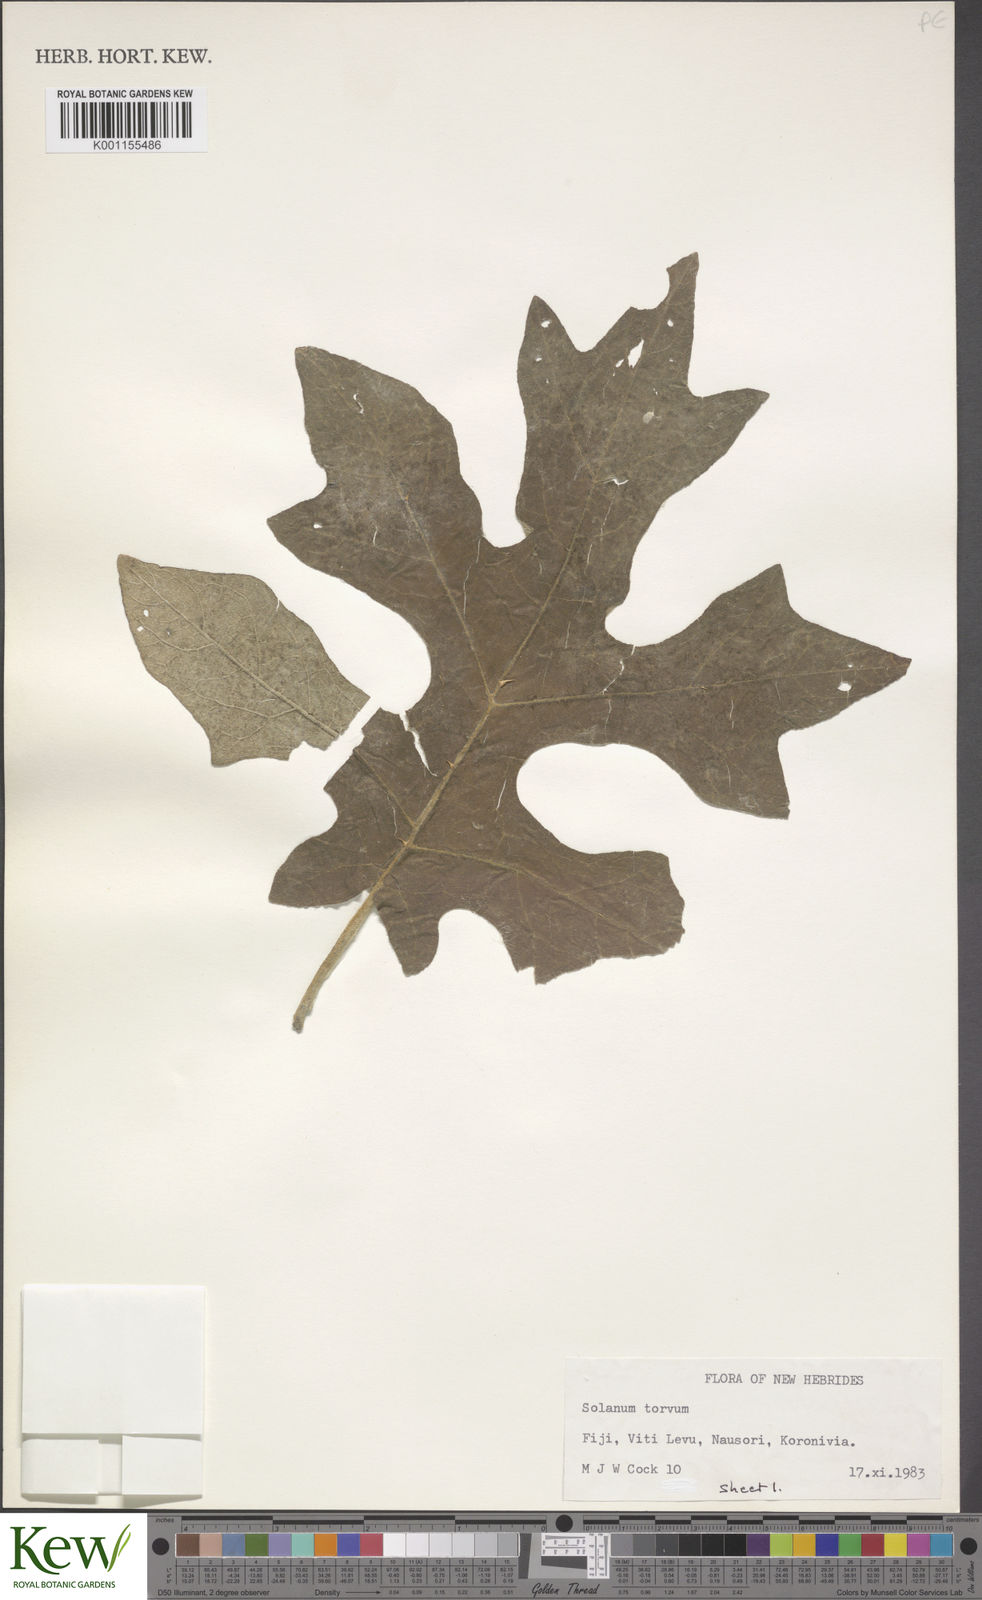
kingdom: Plantae
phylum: Tracheophyta
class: Magnoliopsida
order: Solanales
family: Solanaceae
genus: Solanum
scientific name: Solanum torvum
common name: Turkey berry
